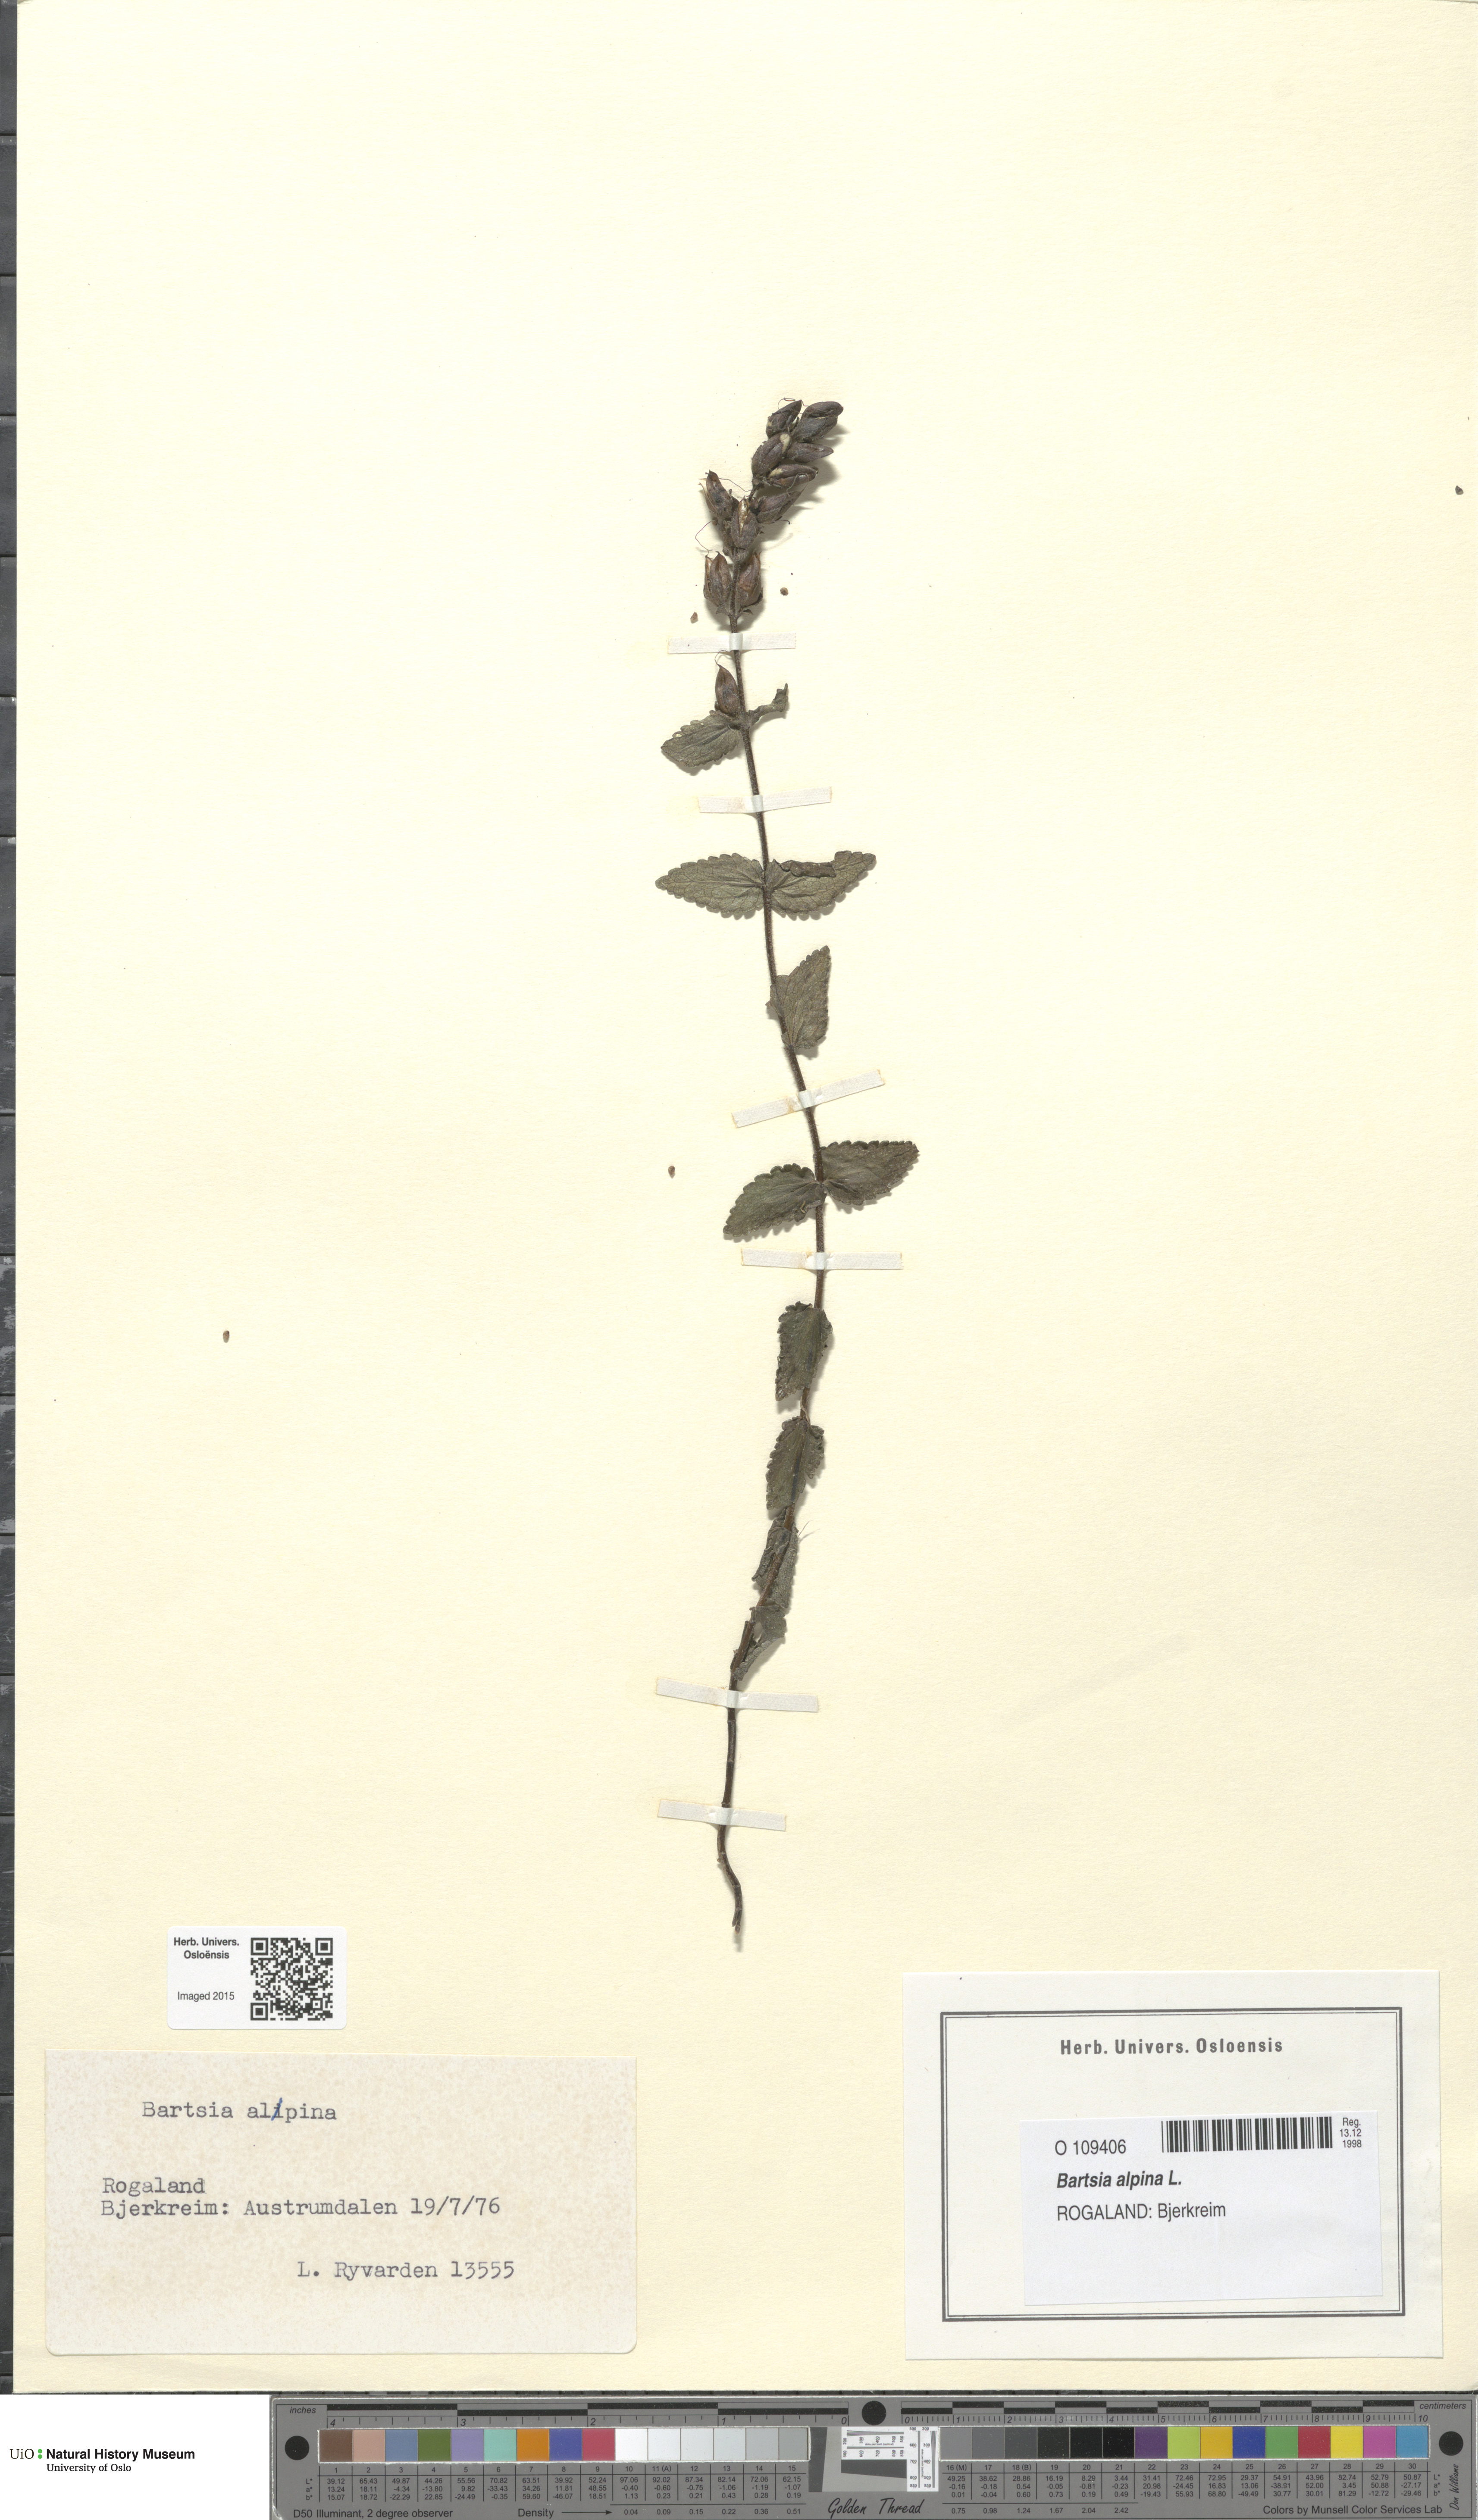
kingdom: Plantae
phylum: Tracheophyta
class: Magnoliopsida
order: Lamiales
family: Orobanchaceae
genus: Bartsia
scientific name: Bartsia alpina
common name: Alpine bartsia
